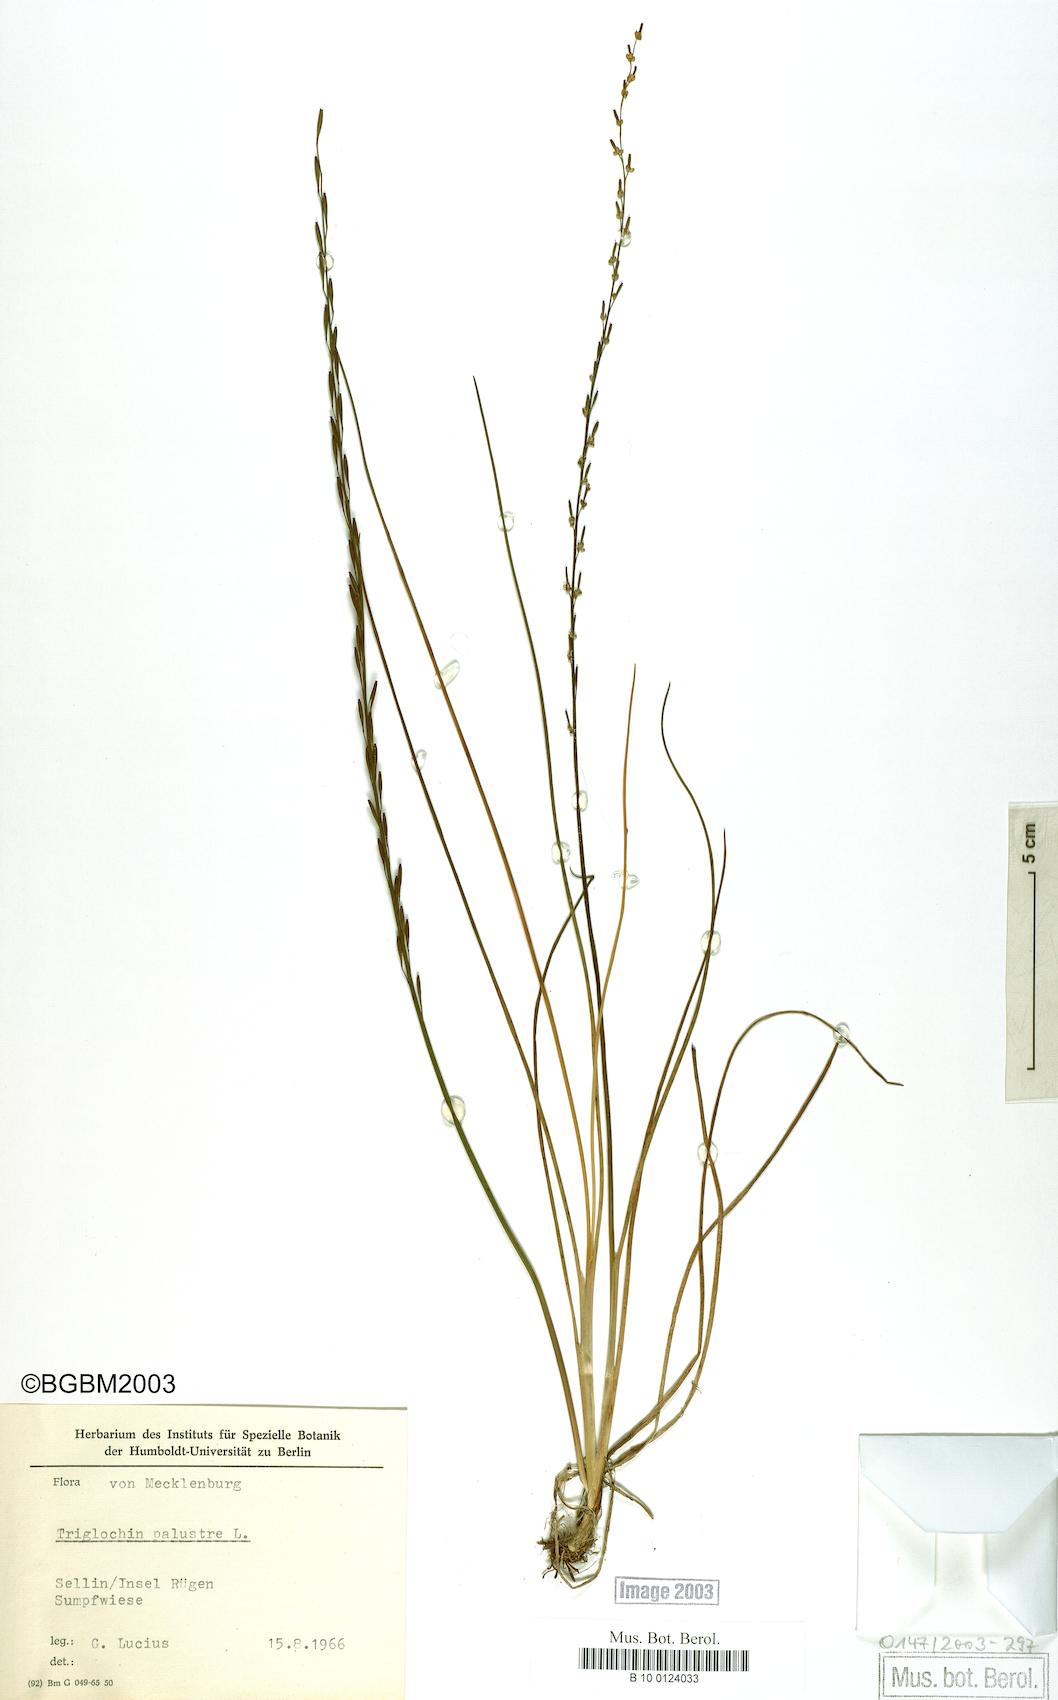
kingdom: Plantae
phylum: Tracheophyta
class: Liliopsida
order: Alismatales
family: Juncaginaceae
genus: Triglochin
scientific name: Triglochin palustris
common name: Marsh arrowgrass
